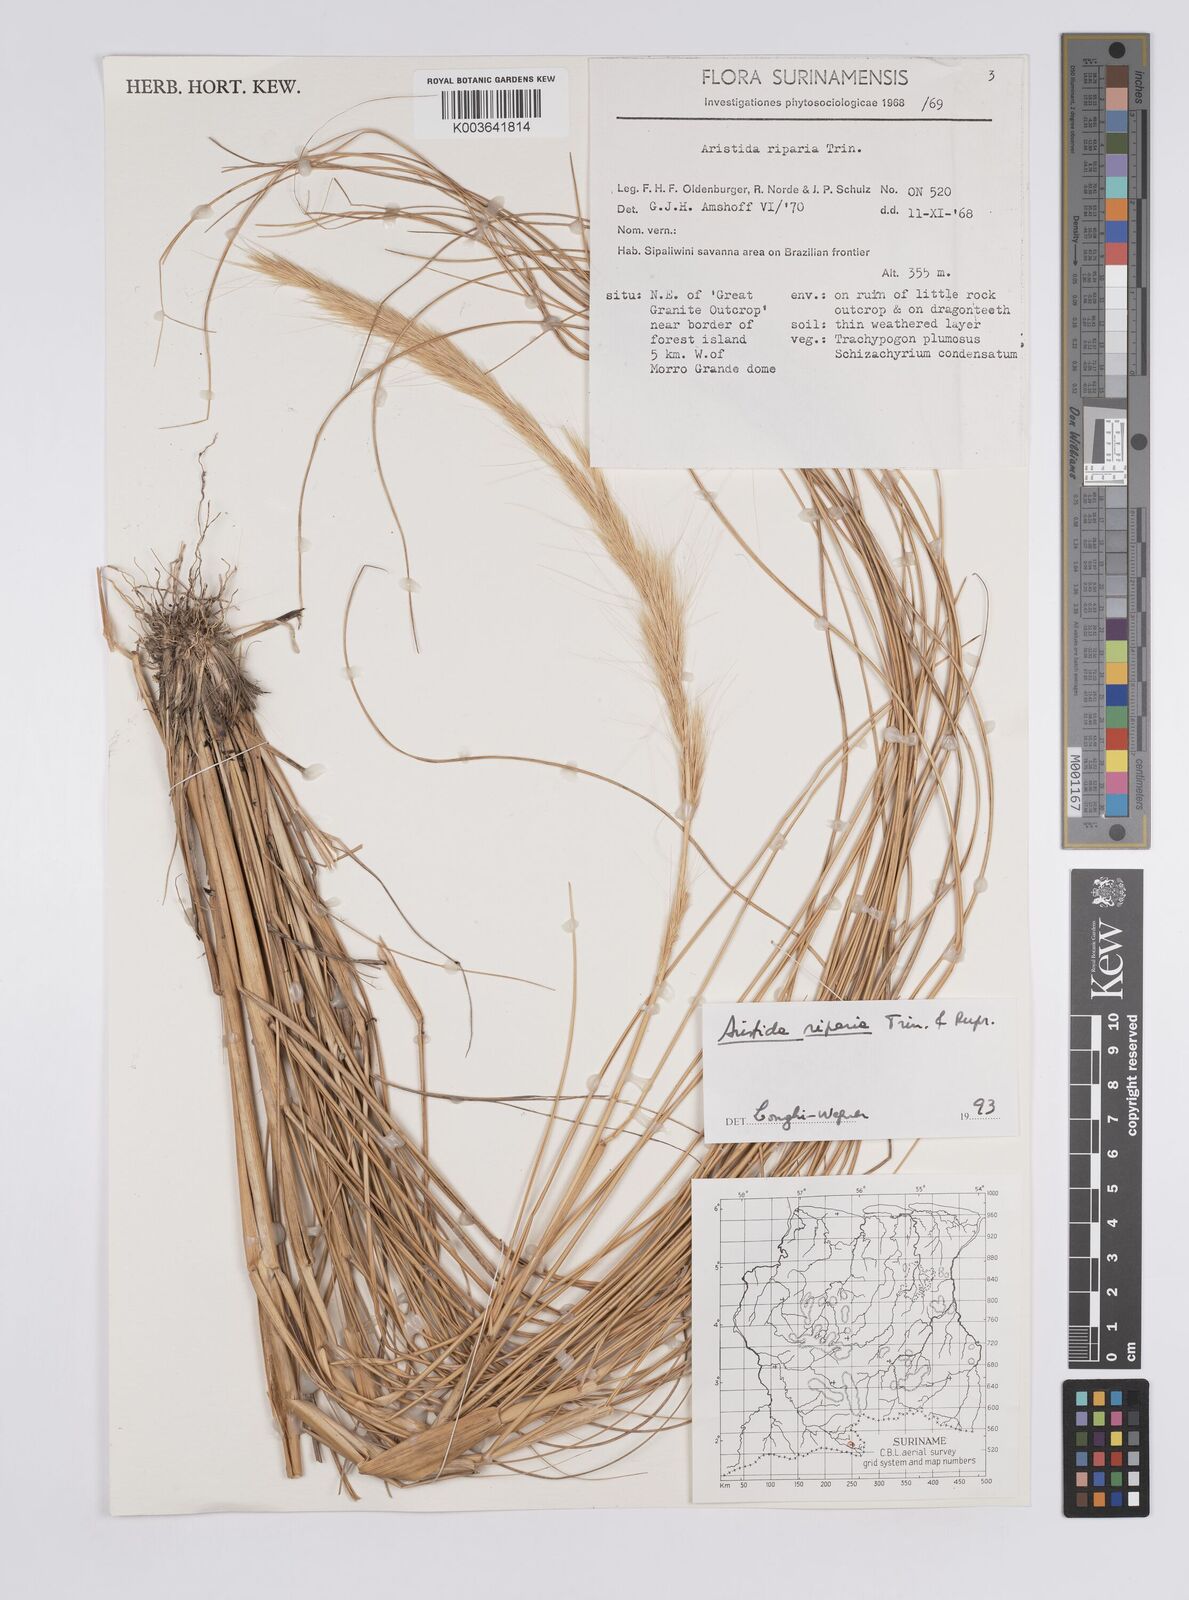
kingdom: Plantae
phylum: Tracheophyta
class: Liliopsida
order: Poales
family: Poaceae
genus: Aristida
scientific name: Aristida riparia
